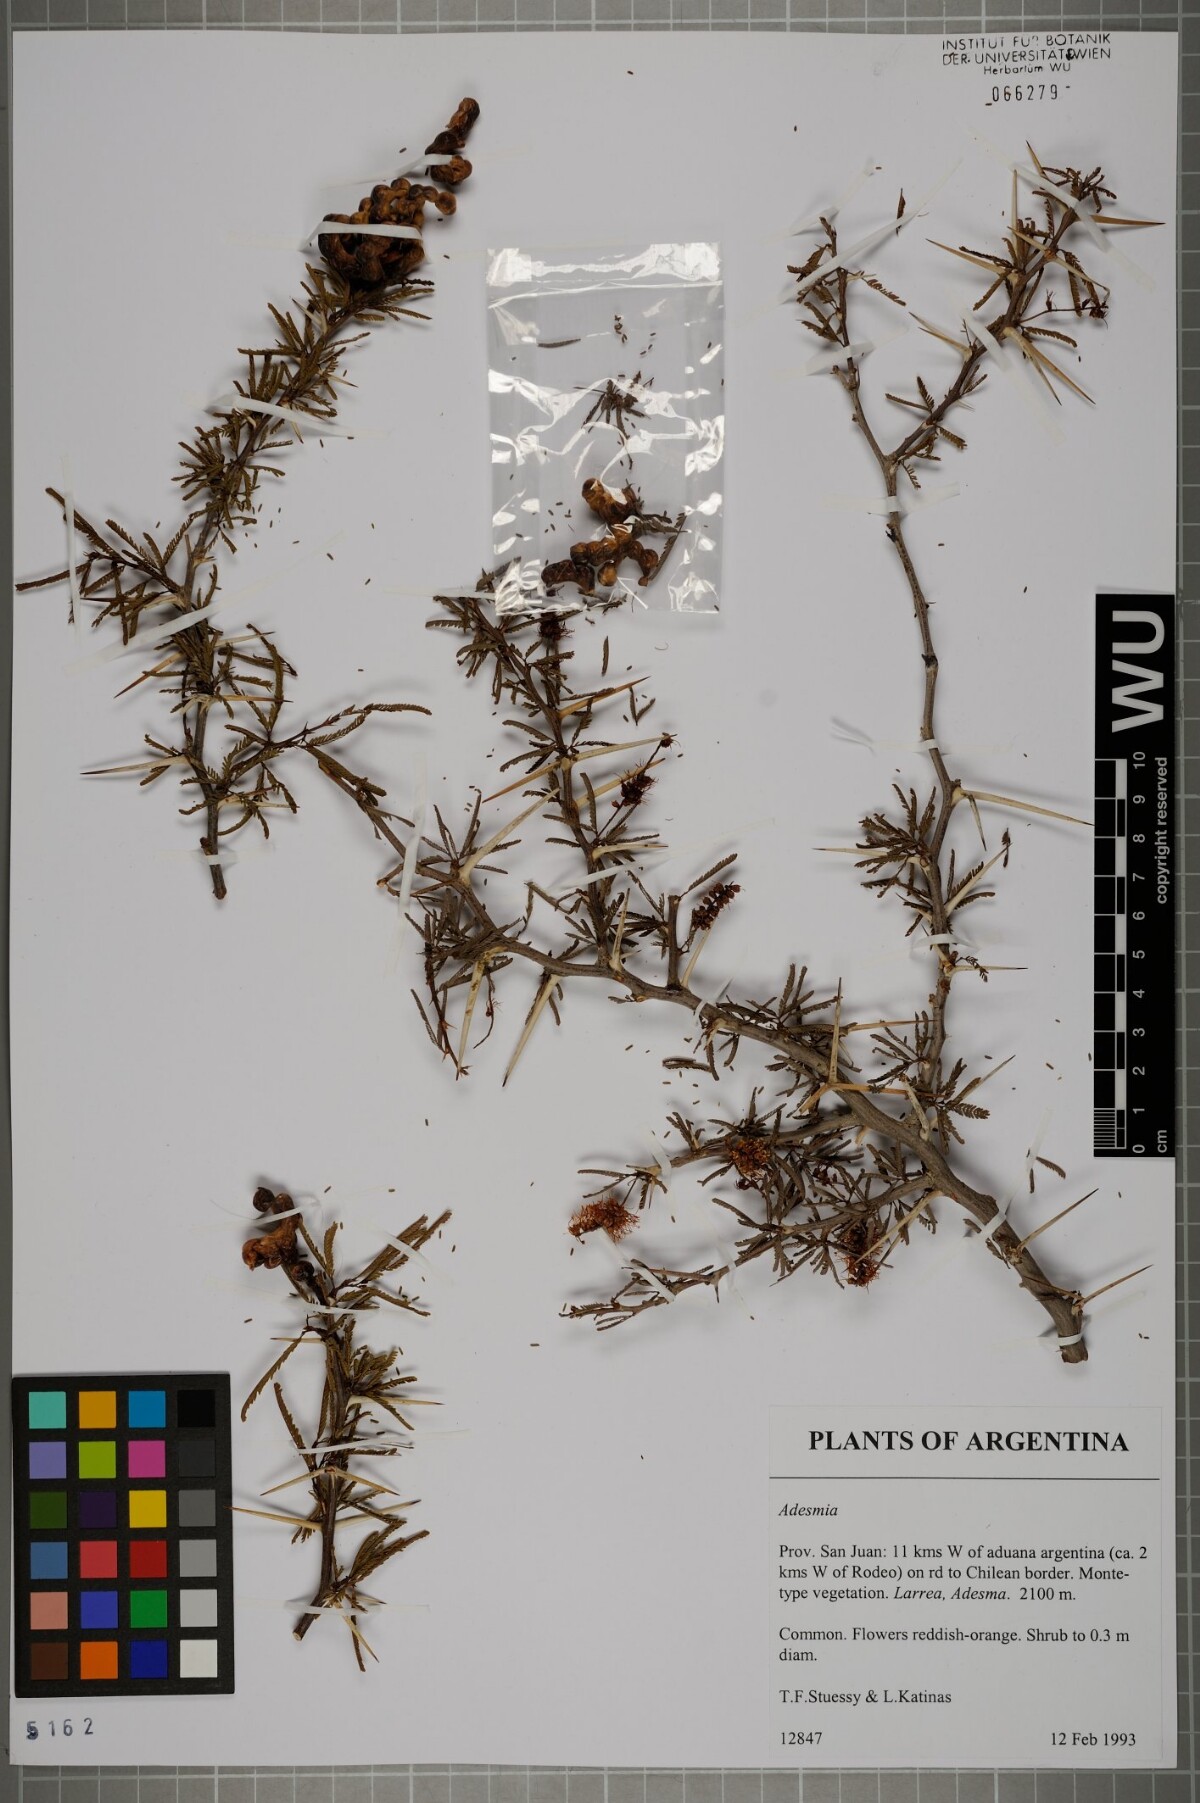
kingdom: Plantae
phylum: Tracheophyta
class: Magnoliopsida
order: Fabales
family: Fabaceae
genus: Adesmia
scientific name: Adesmia
